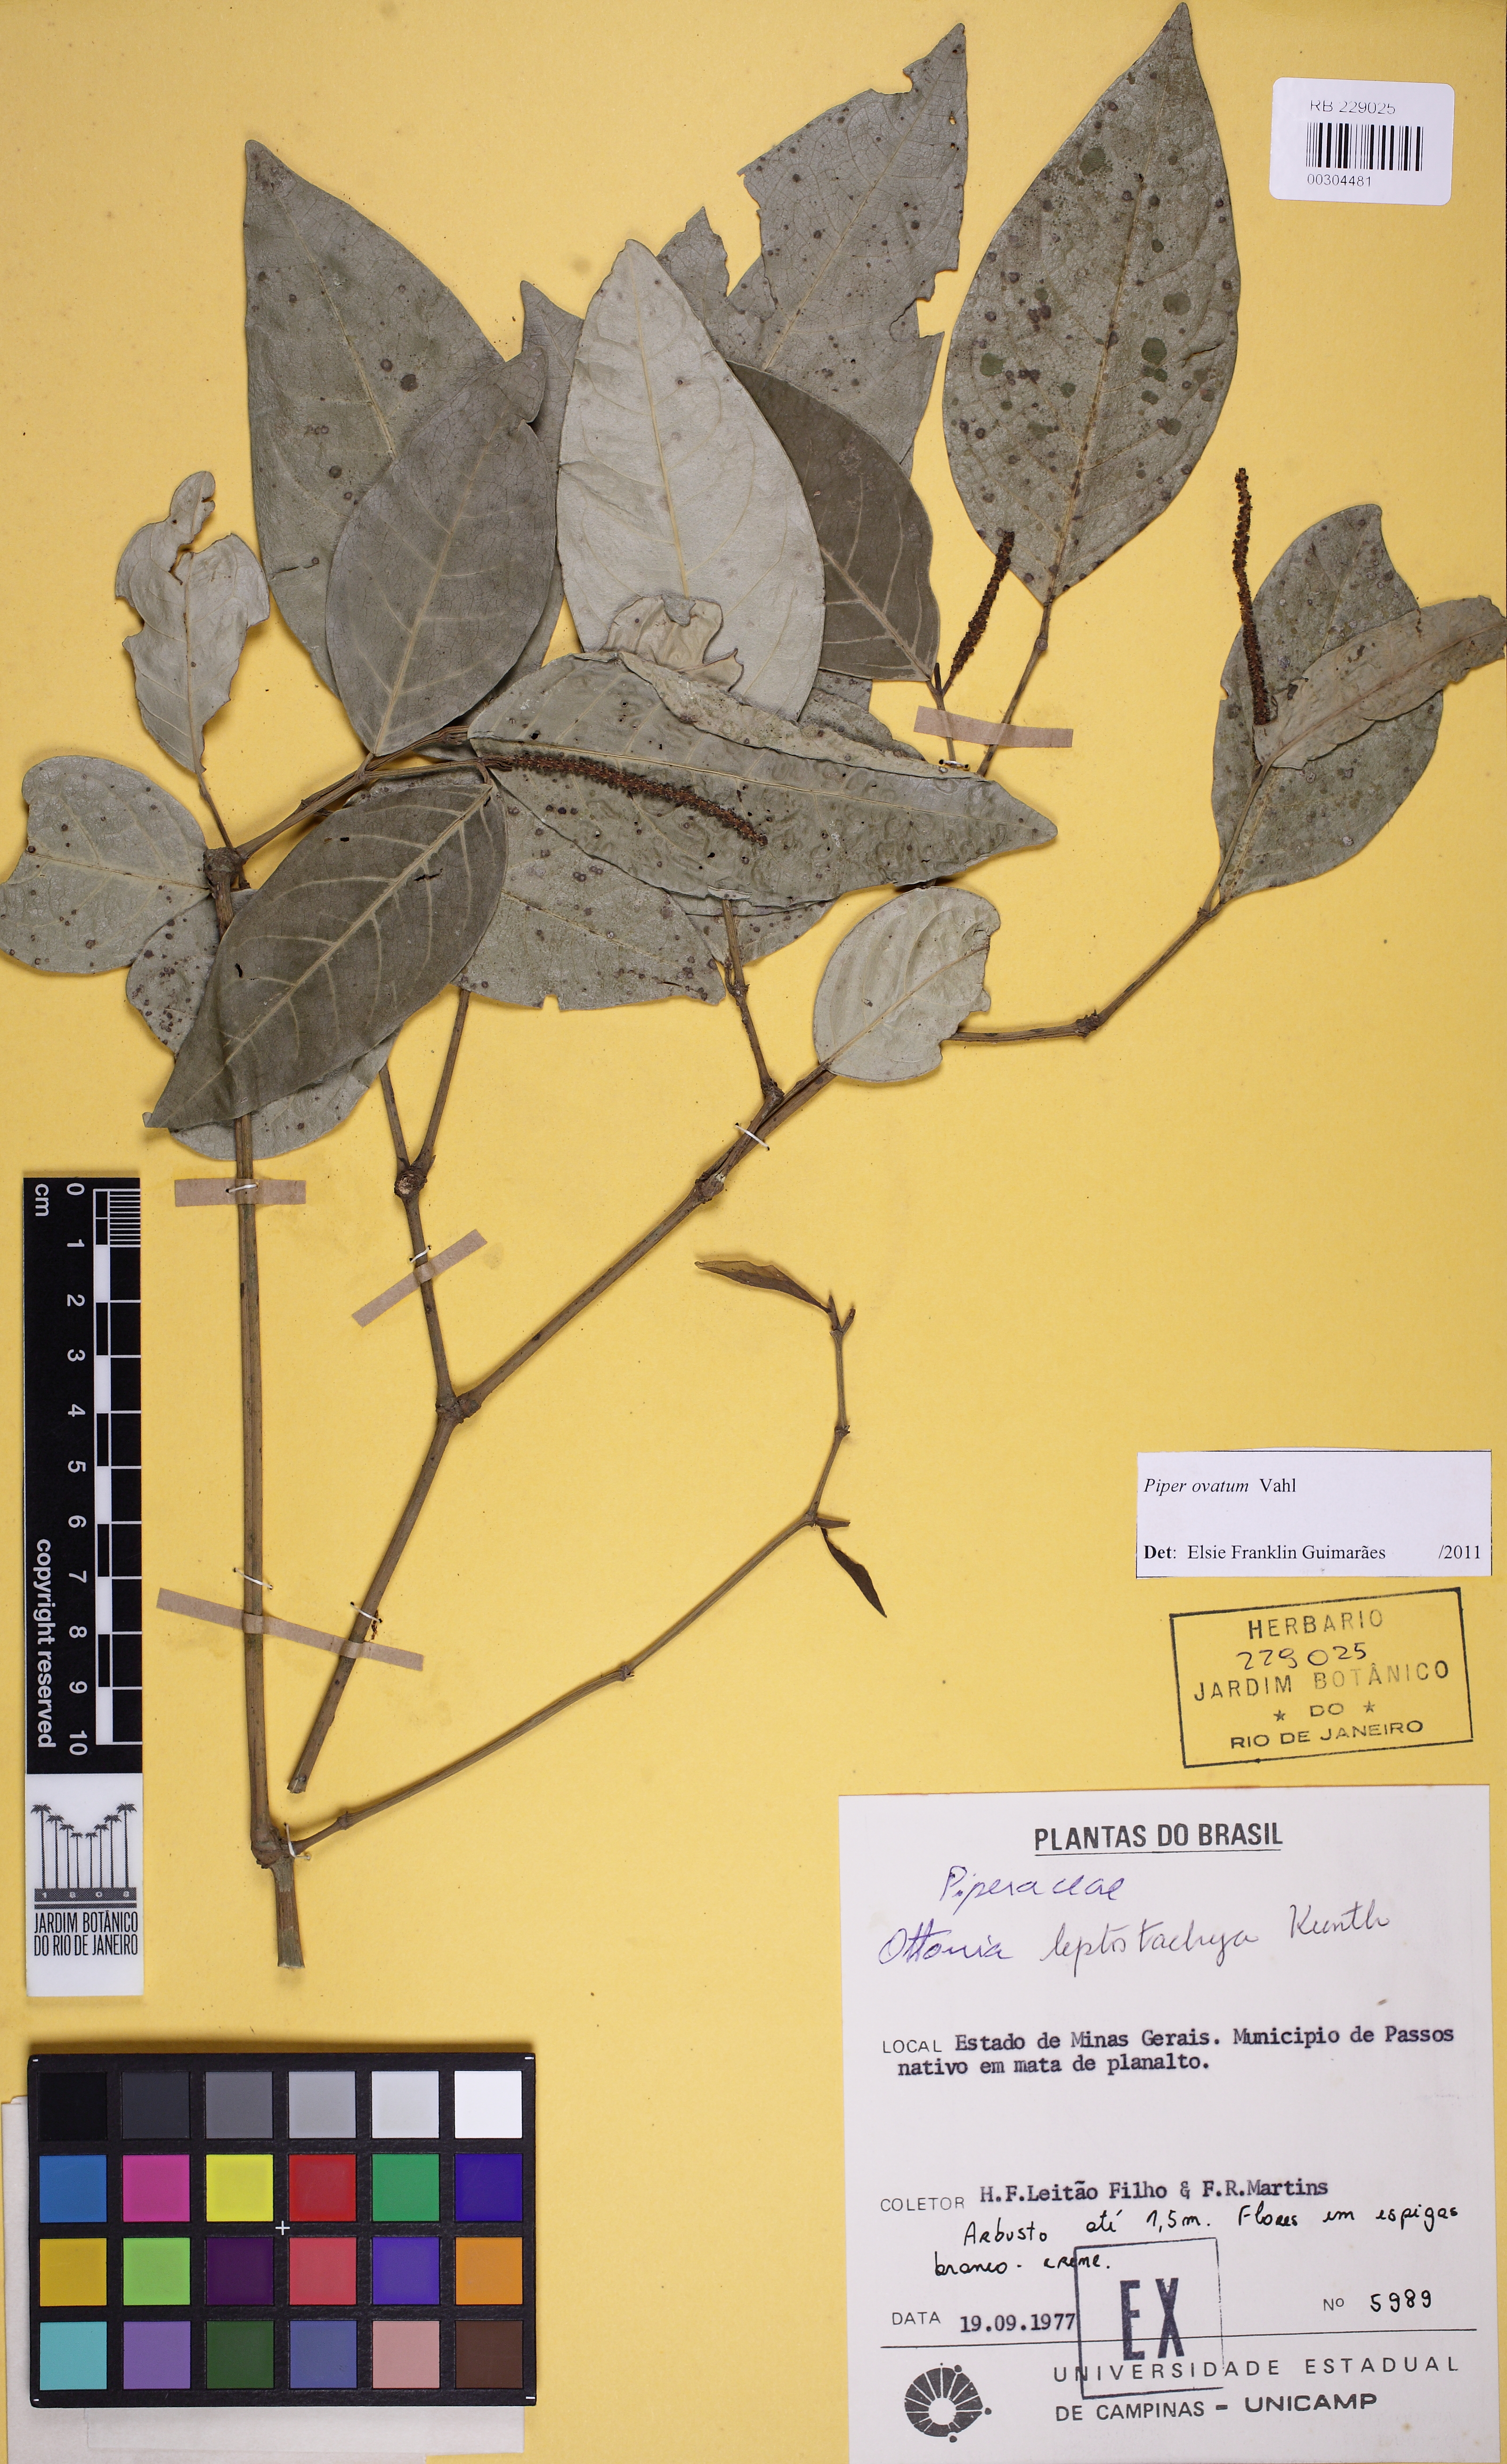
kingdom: Plantae
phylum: Tracheophyta
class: Magnoliopsida
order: Piperales
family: Piperaceae
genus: Piper
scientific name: Piper ovatum
